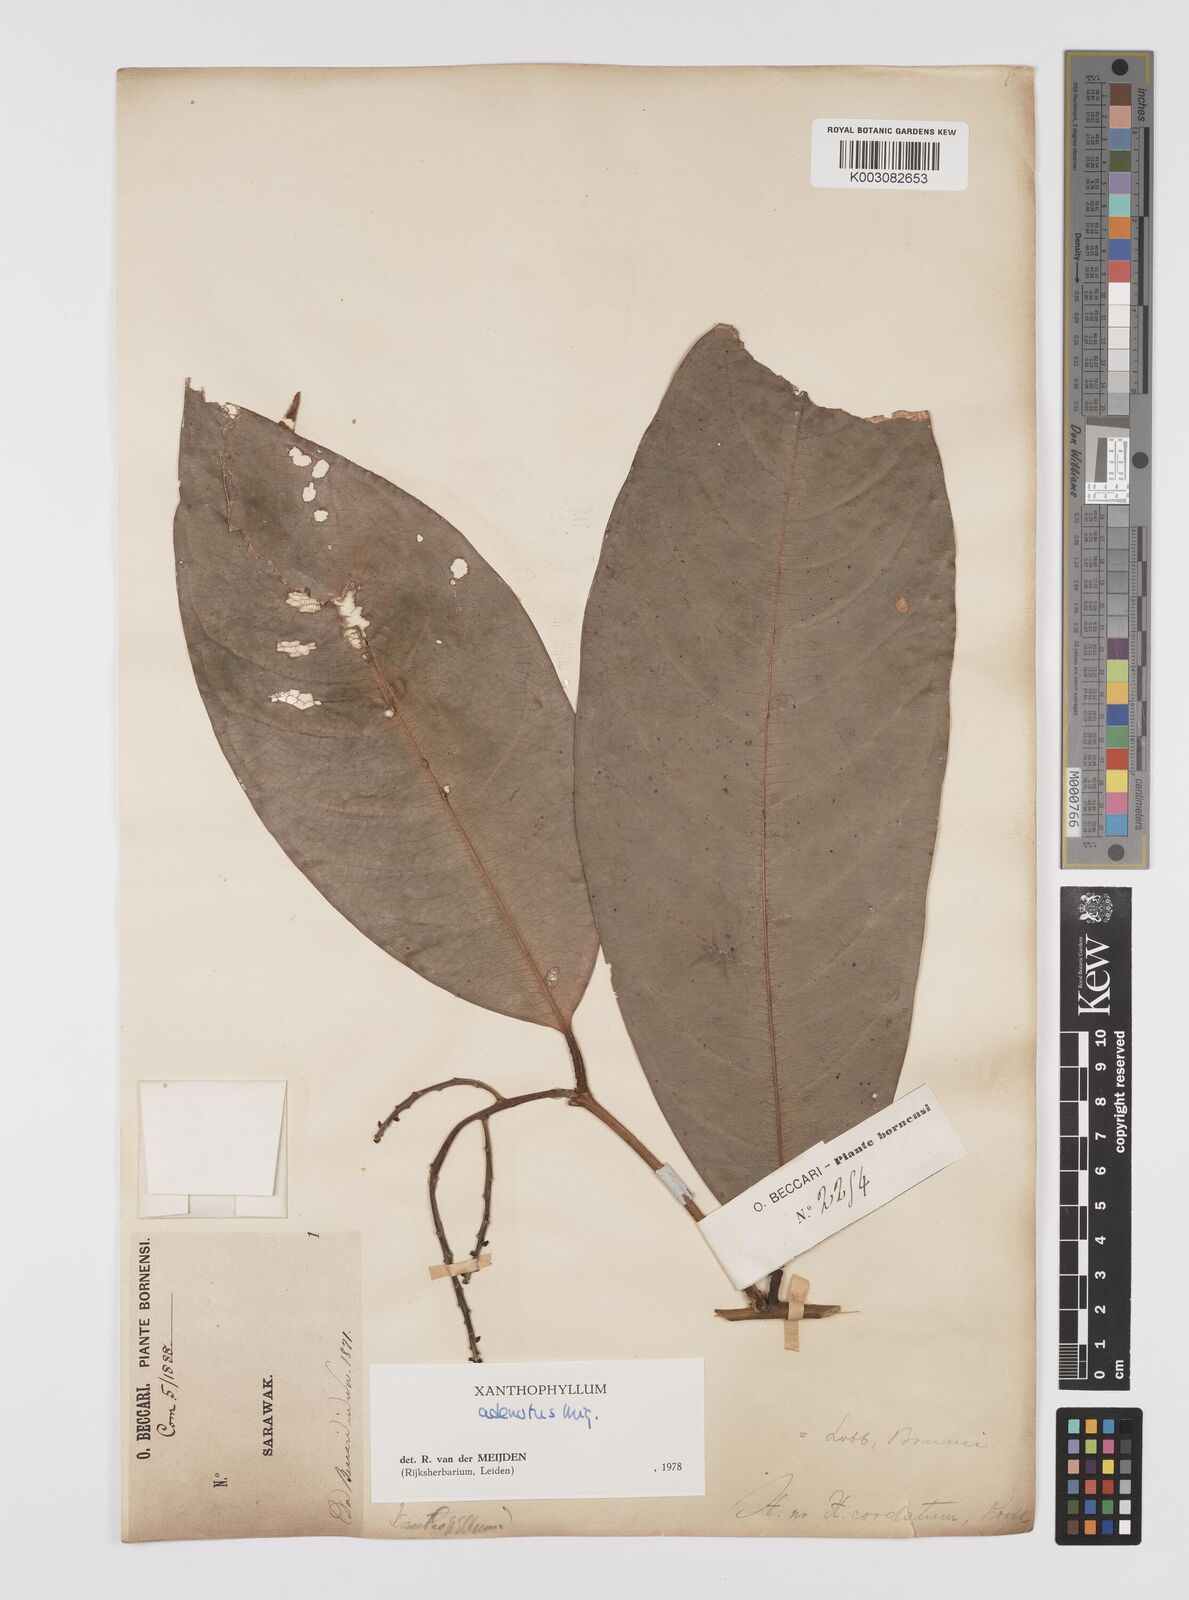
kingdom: Plantae
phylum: Tracheophyta
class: Magnoliopsida
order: Fabales
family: Polygalaceae
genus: Xanthophyllum
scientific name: Xanthophyllum adenotus
